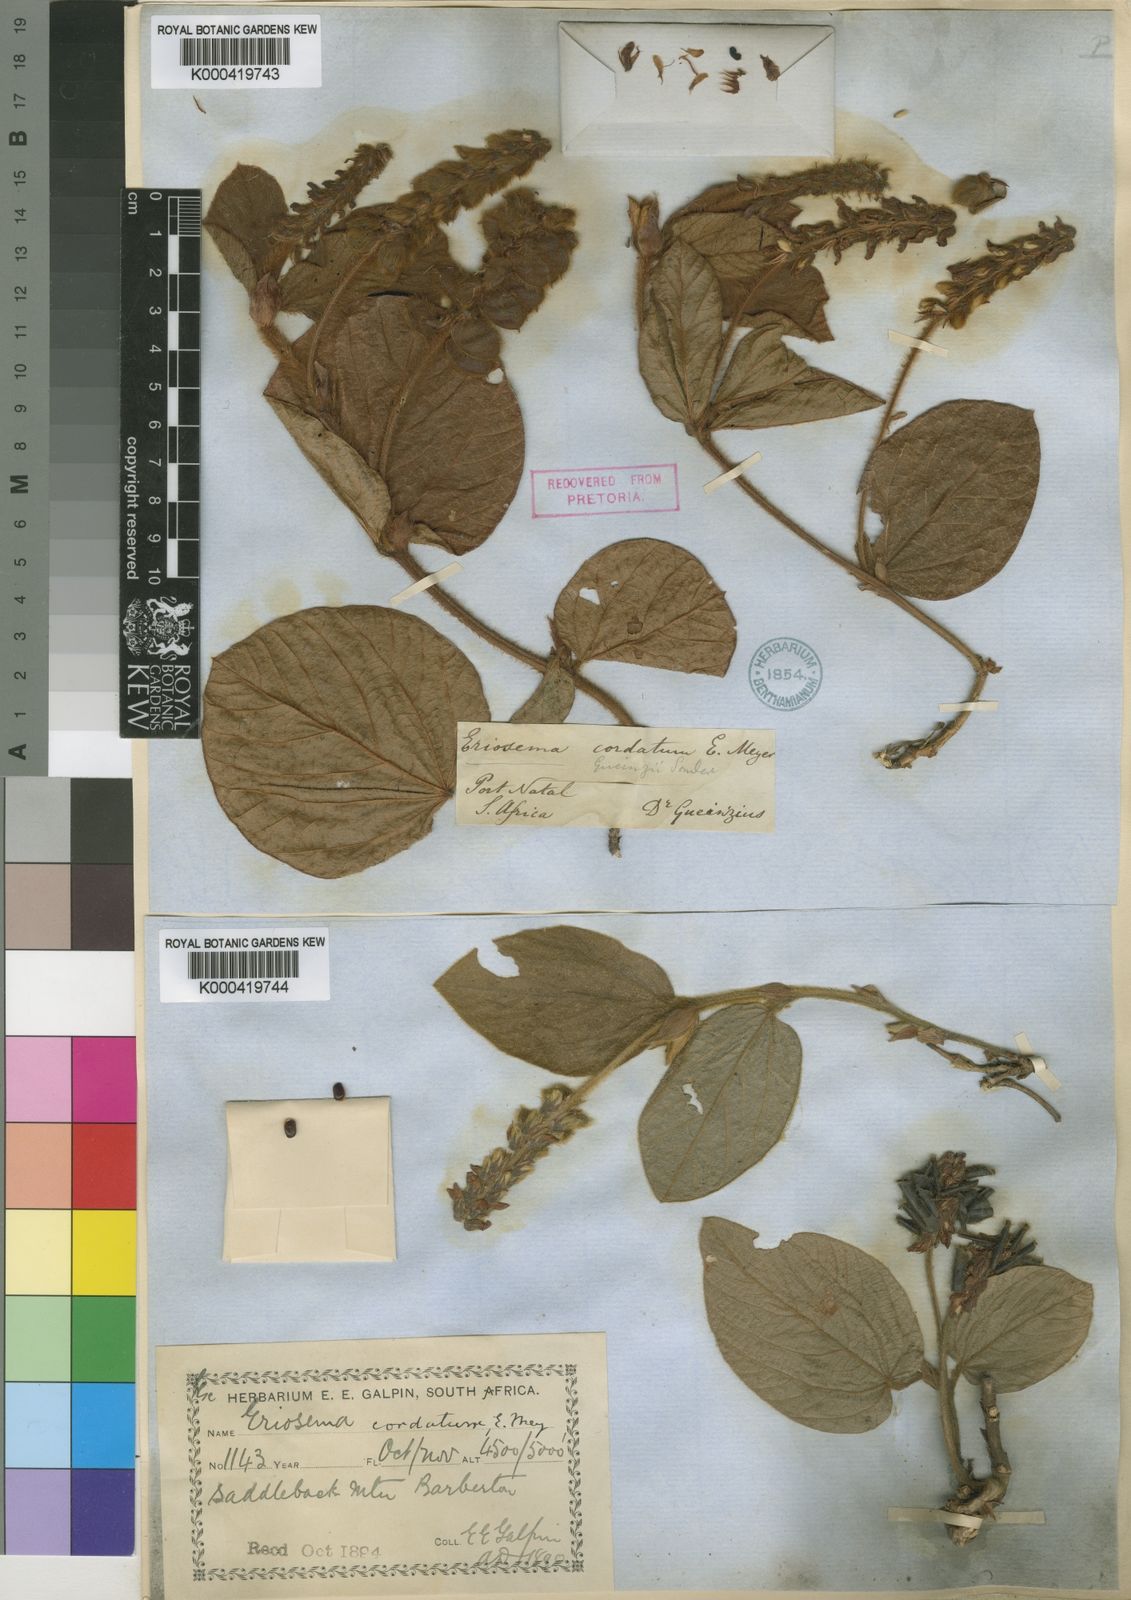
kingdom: Plantae
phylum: Tracheophyta
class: Magnoliopsida
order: Fabales
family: Fabaceae
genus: Eriosema
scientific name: Eriosema cordatum
